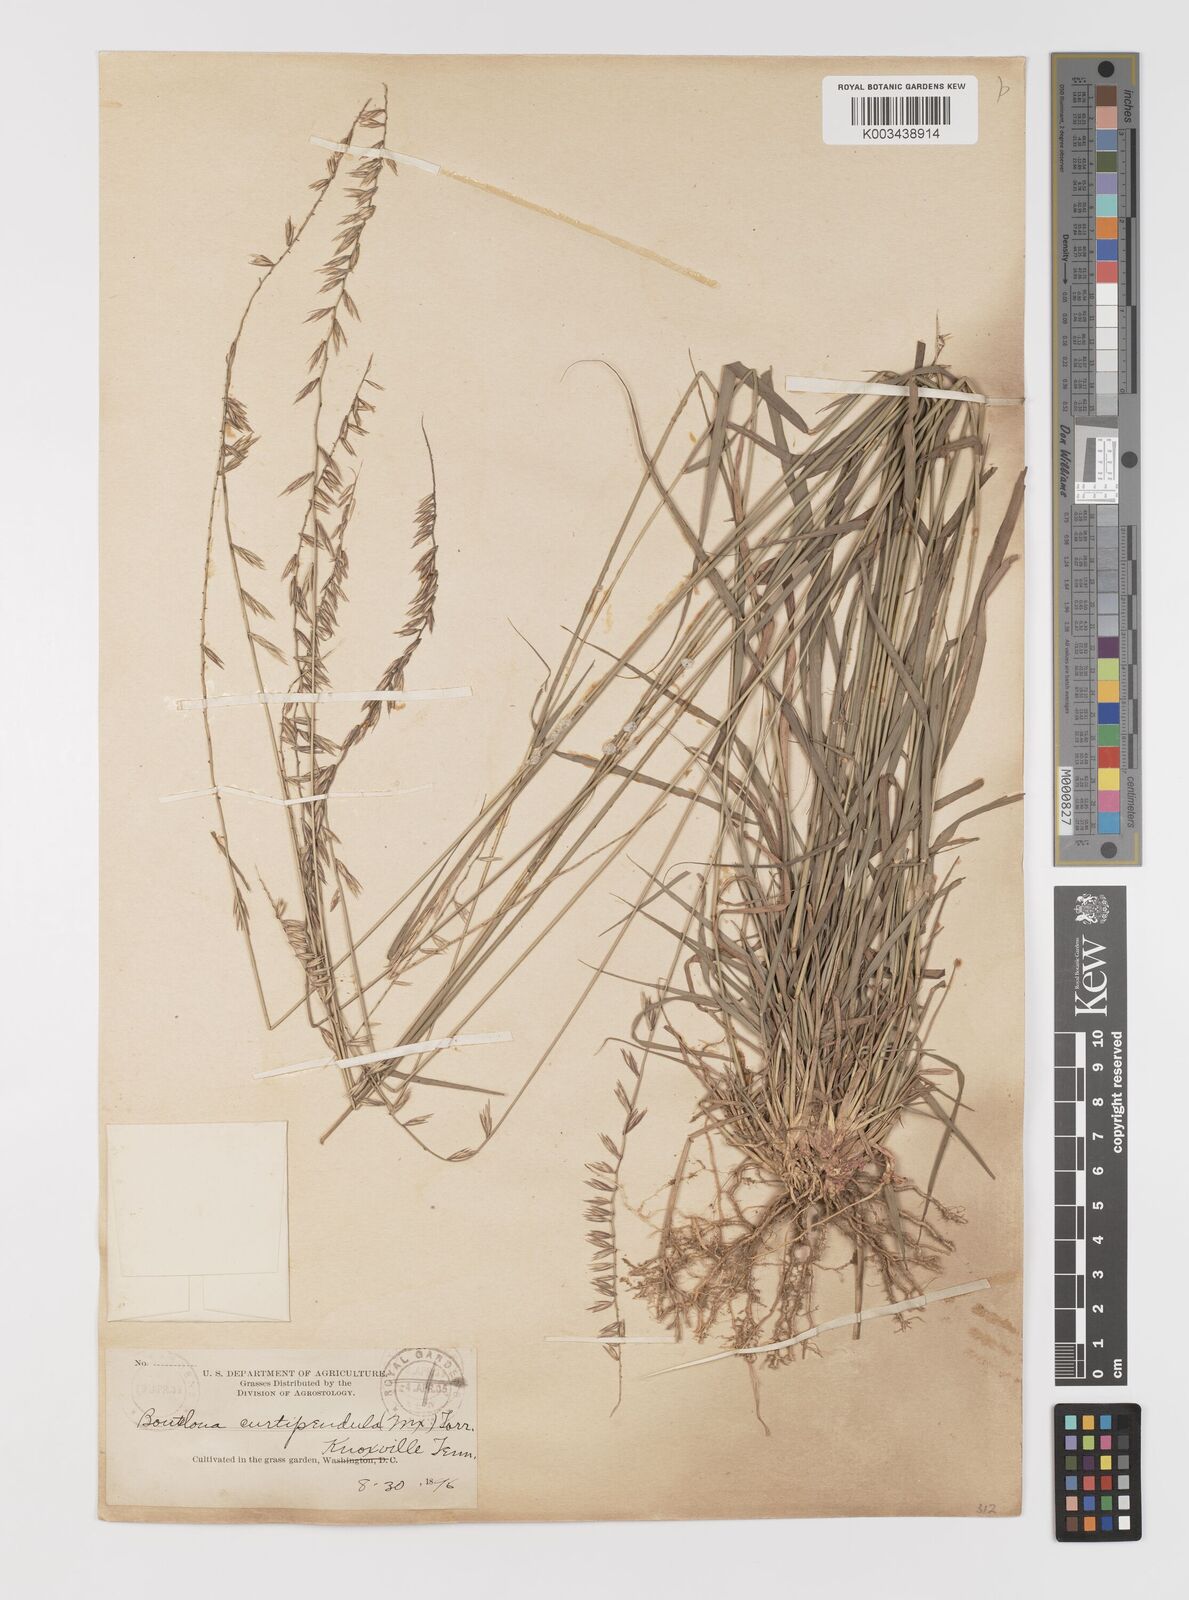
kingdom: Plantae
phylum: Tracheophyta
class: Liliopsida
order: Poales
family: Poaceae
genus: Bouteloua
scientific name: Bouteloua curtipendula
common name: Side-oats grama
